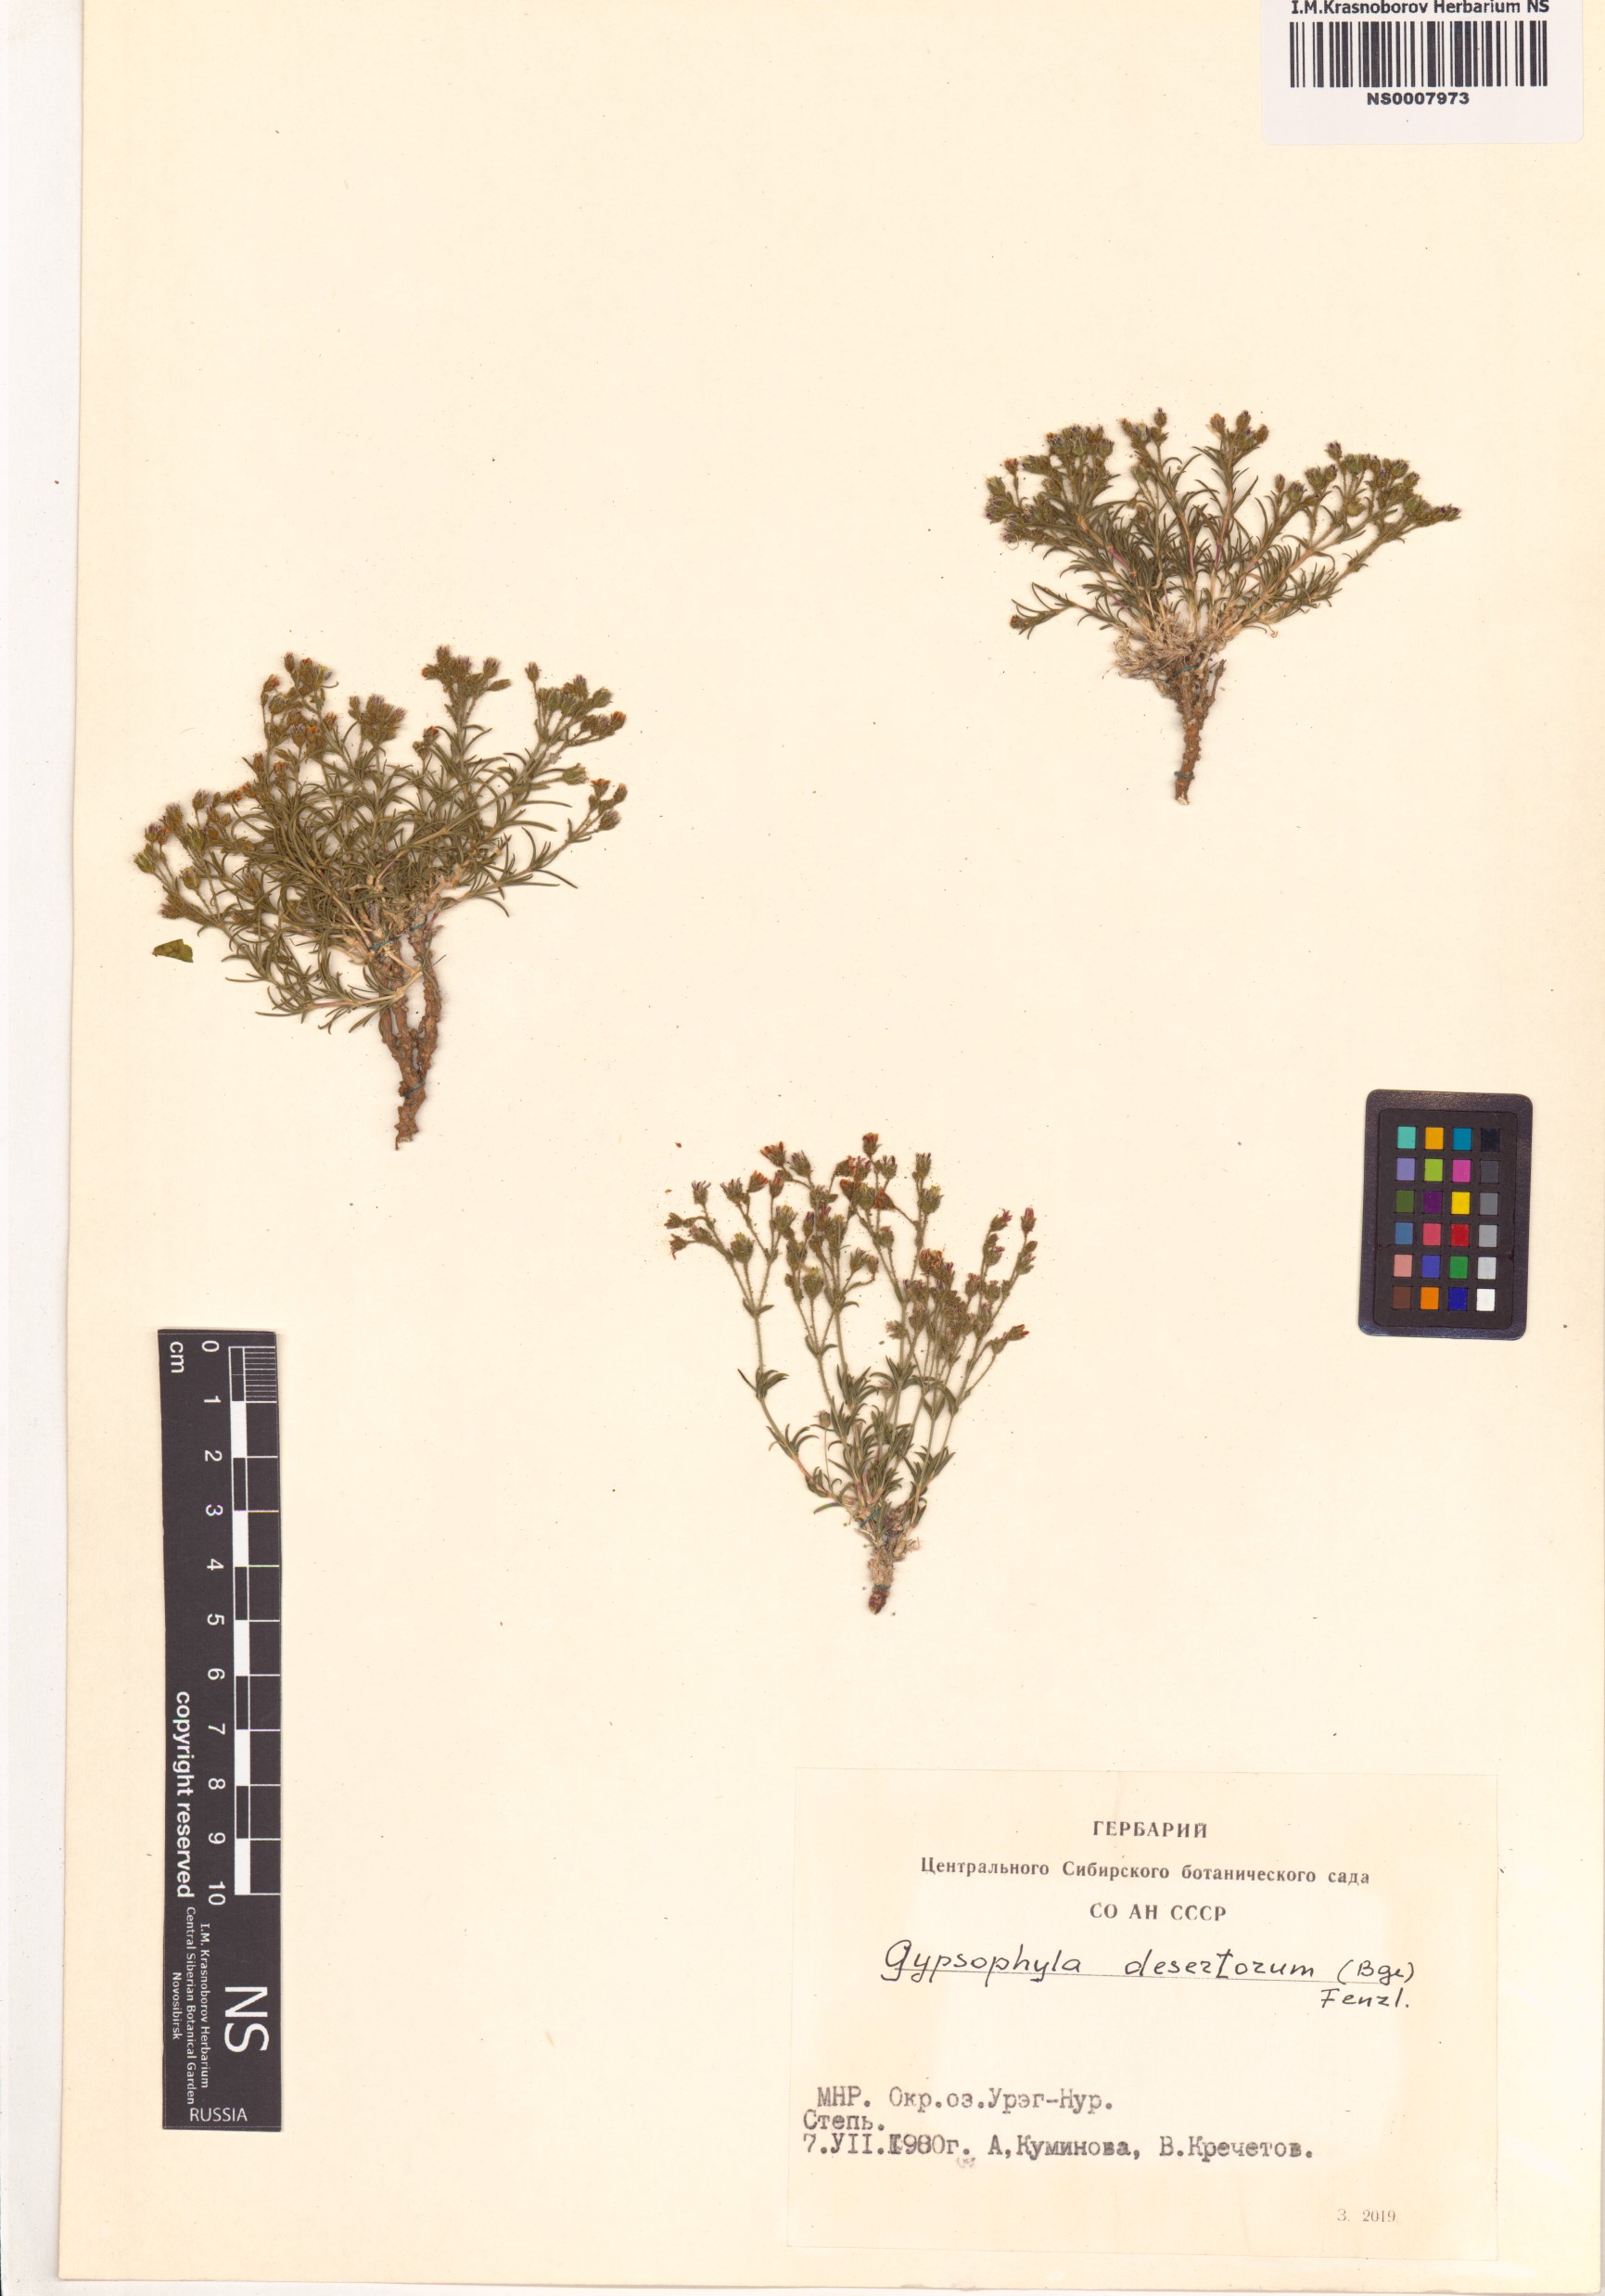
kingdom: Plantae
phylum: Tracheophyta
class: Magnoliopsida
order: Caryophyllales
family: Caryophyllaceae
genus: Heterochroa
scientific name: Heterochroa desertorum
